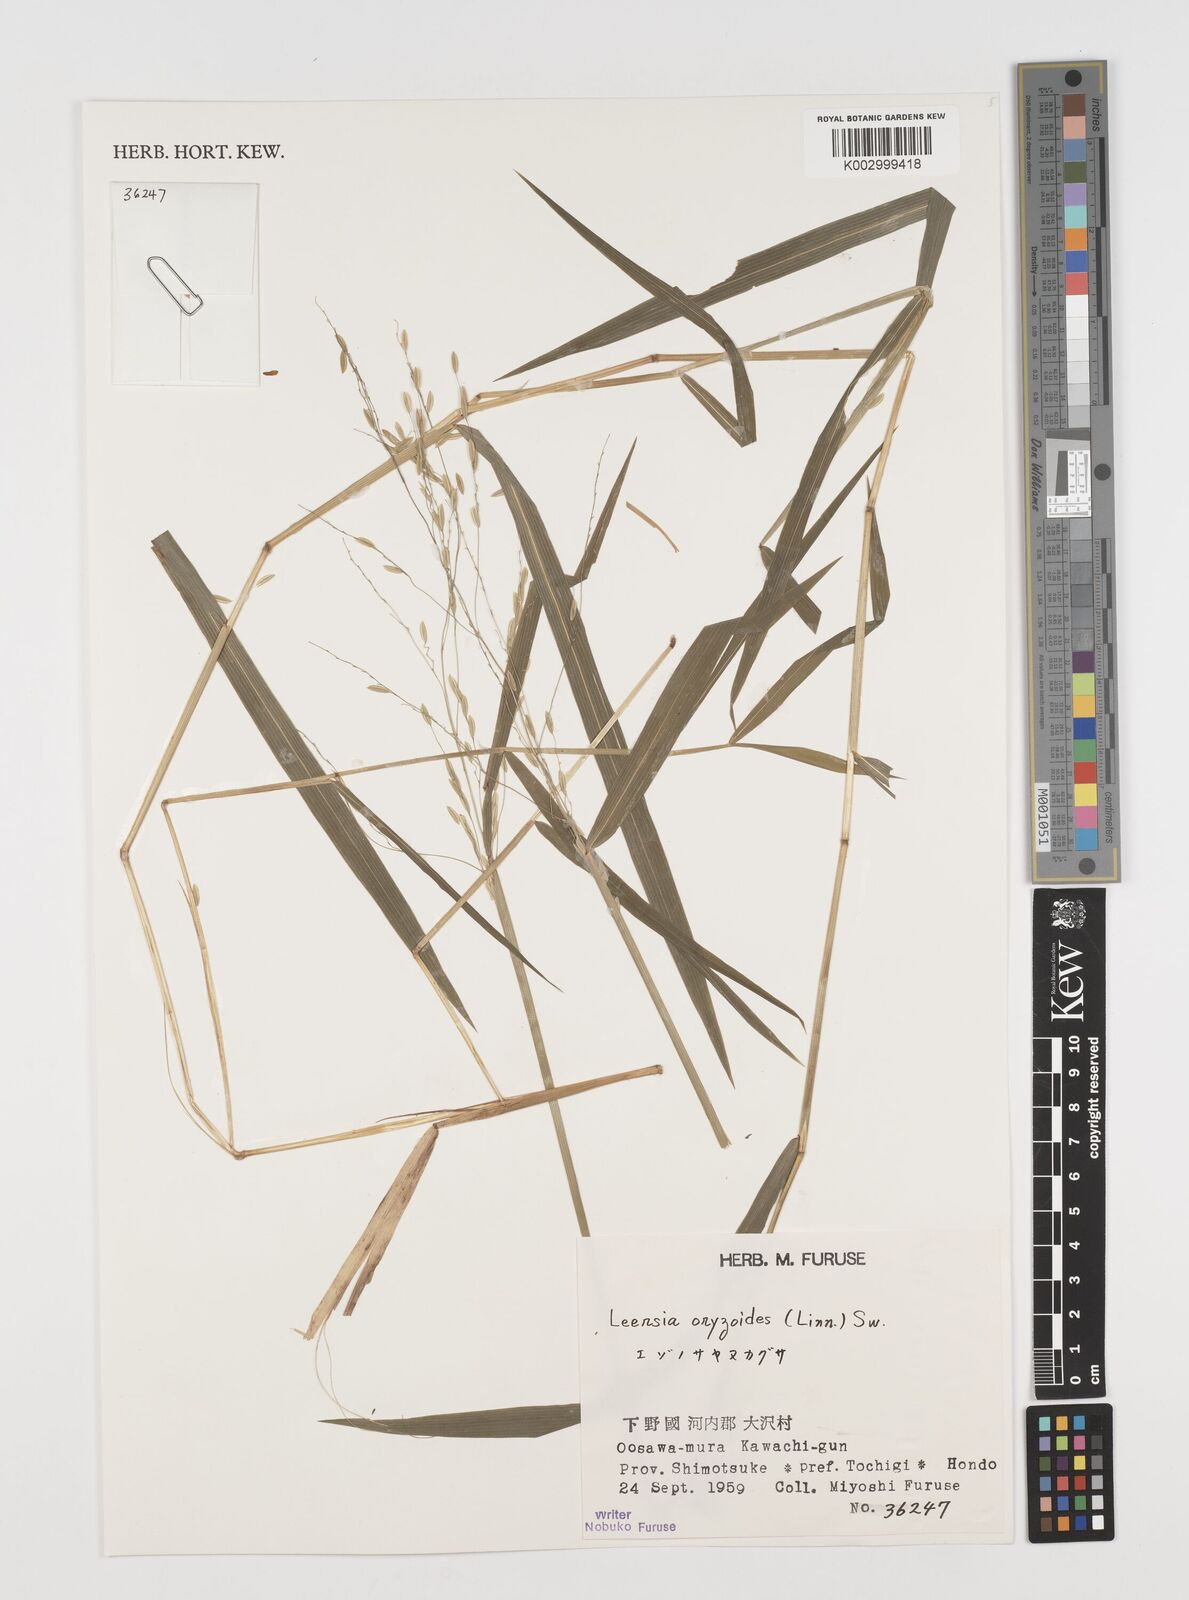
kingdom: Plantae
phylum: Tracheophyta
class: Liliopsida
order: Poales
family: Poaceae
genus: Leersia
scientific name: Leersia oryzoides
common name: Cut-grass
